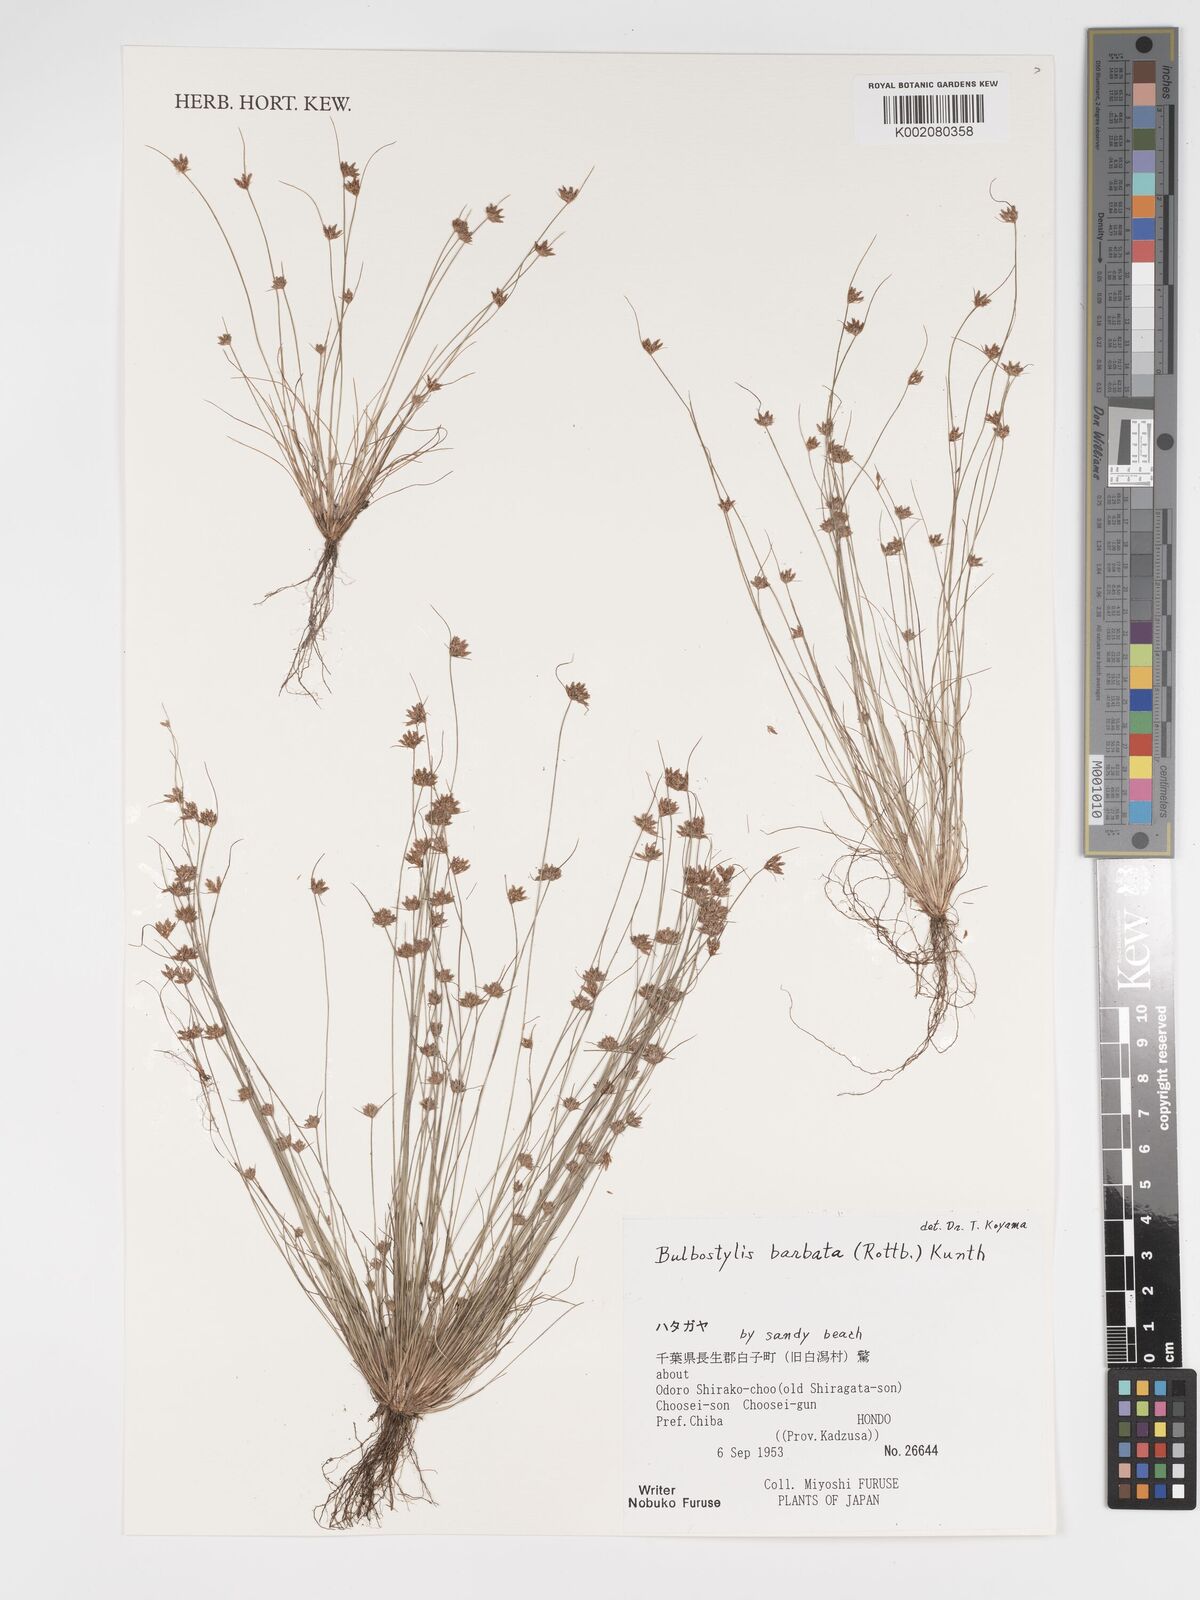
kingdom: Plantae
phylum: Tracheophyta
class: Liliopsida
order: Poales
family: Cyperaceae
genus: Bulbostylis
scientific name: Bulbostylis barbata
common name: Watergrass
